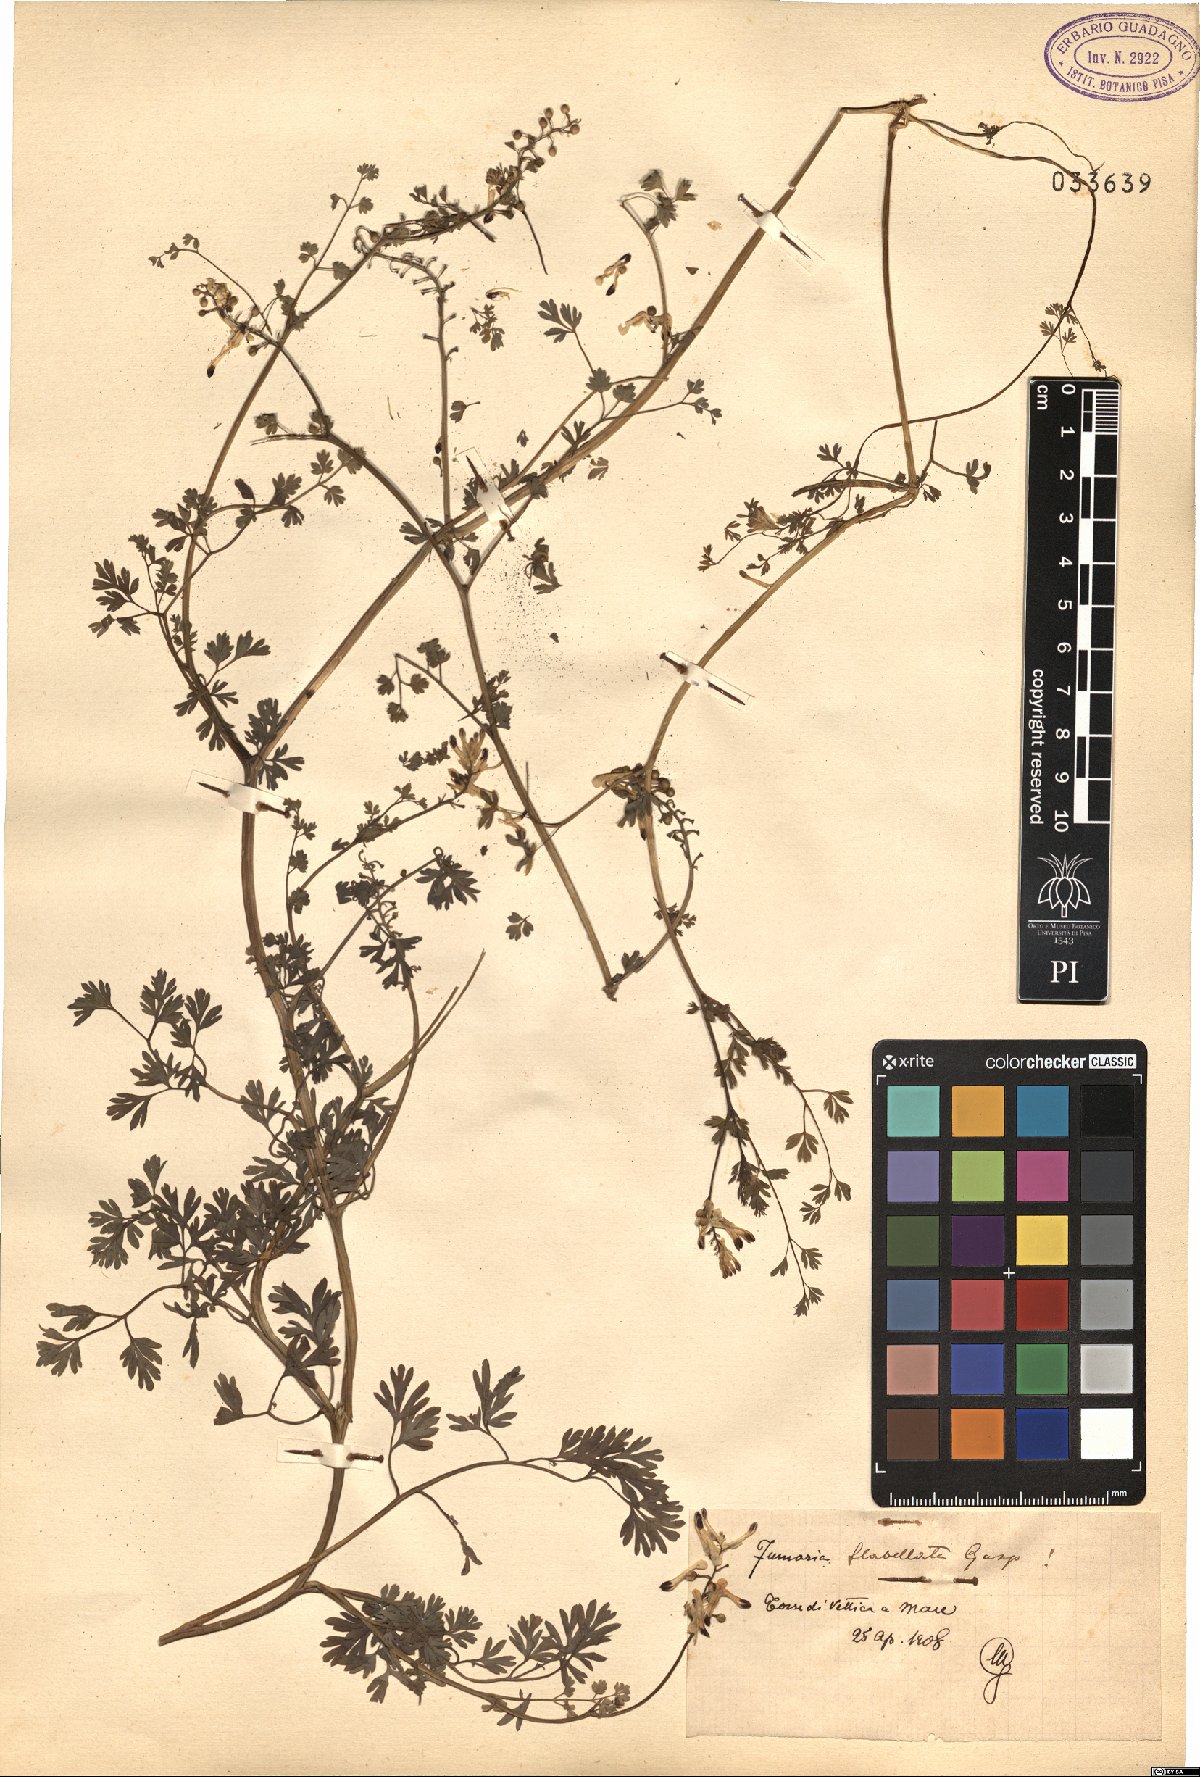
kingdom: Plantae
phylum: Tracheophyta
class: Magnoliopsida
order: Ranunculales
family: Papaveraceae
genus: Fumaria
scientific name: Fumaria flabellata
